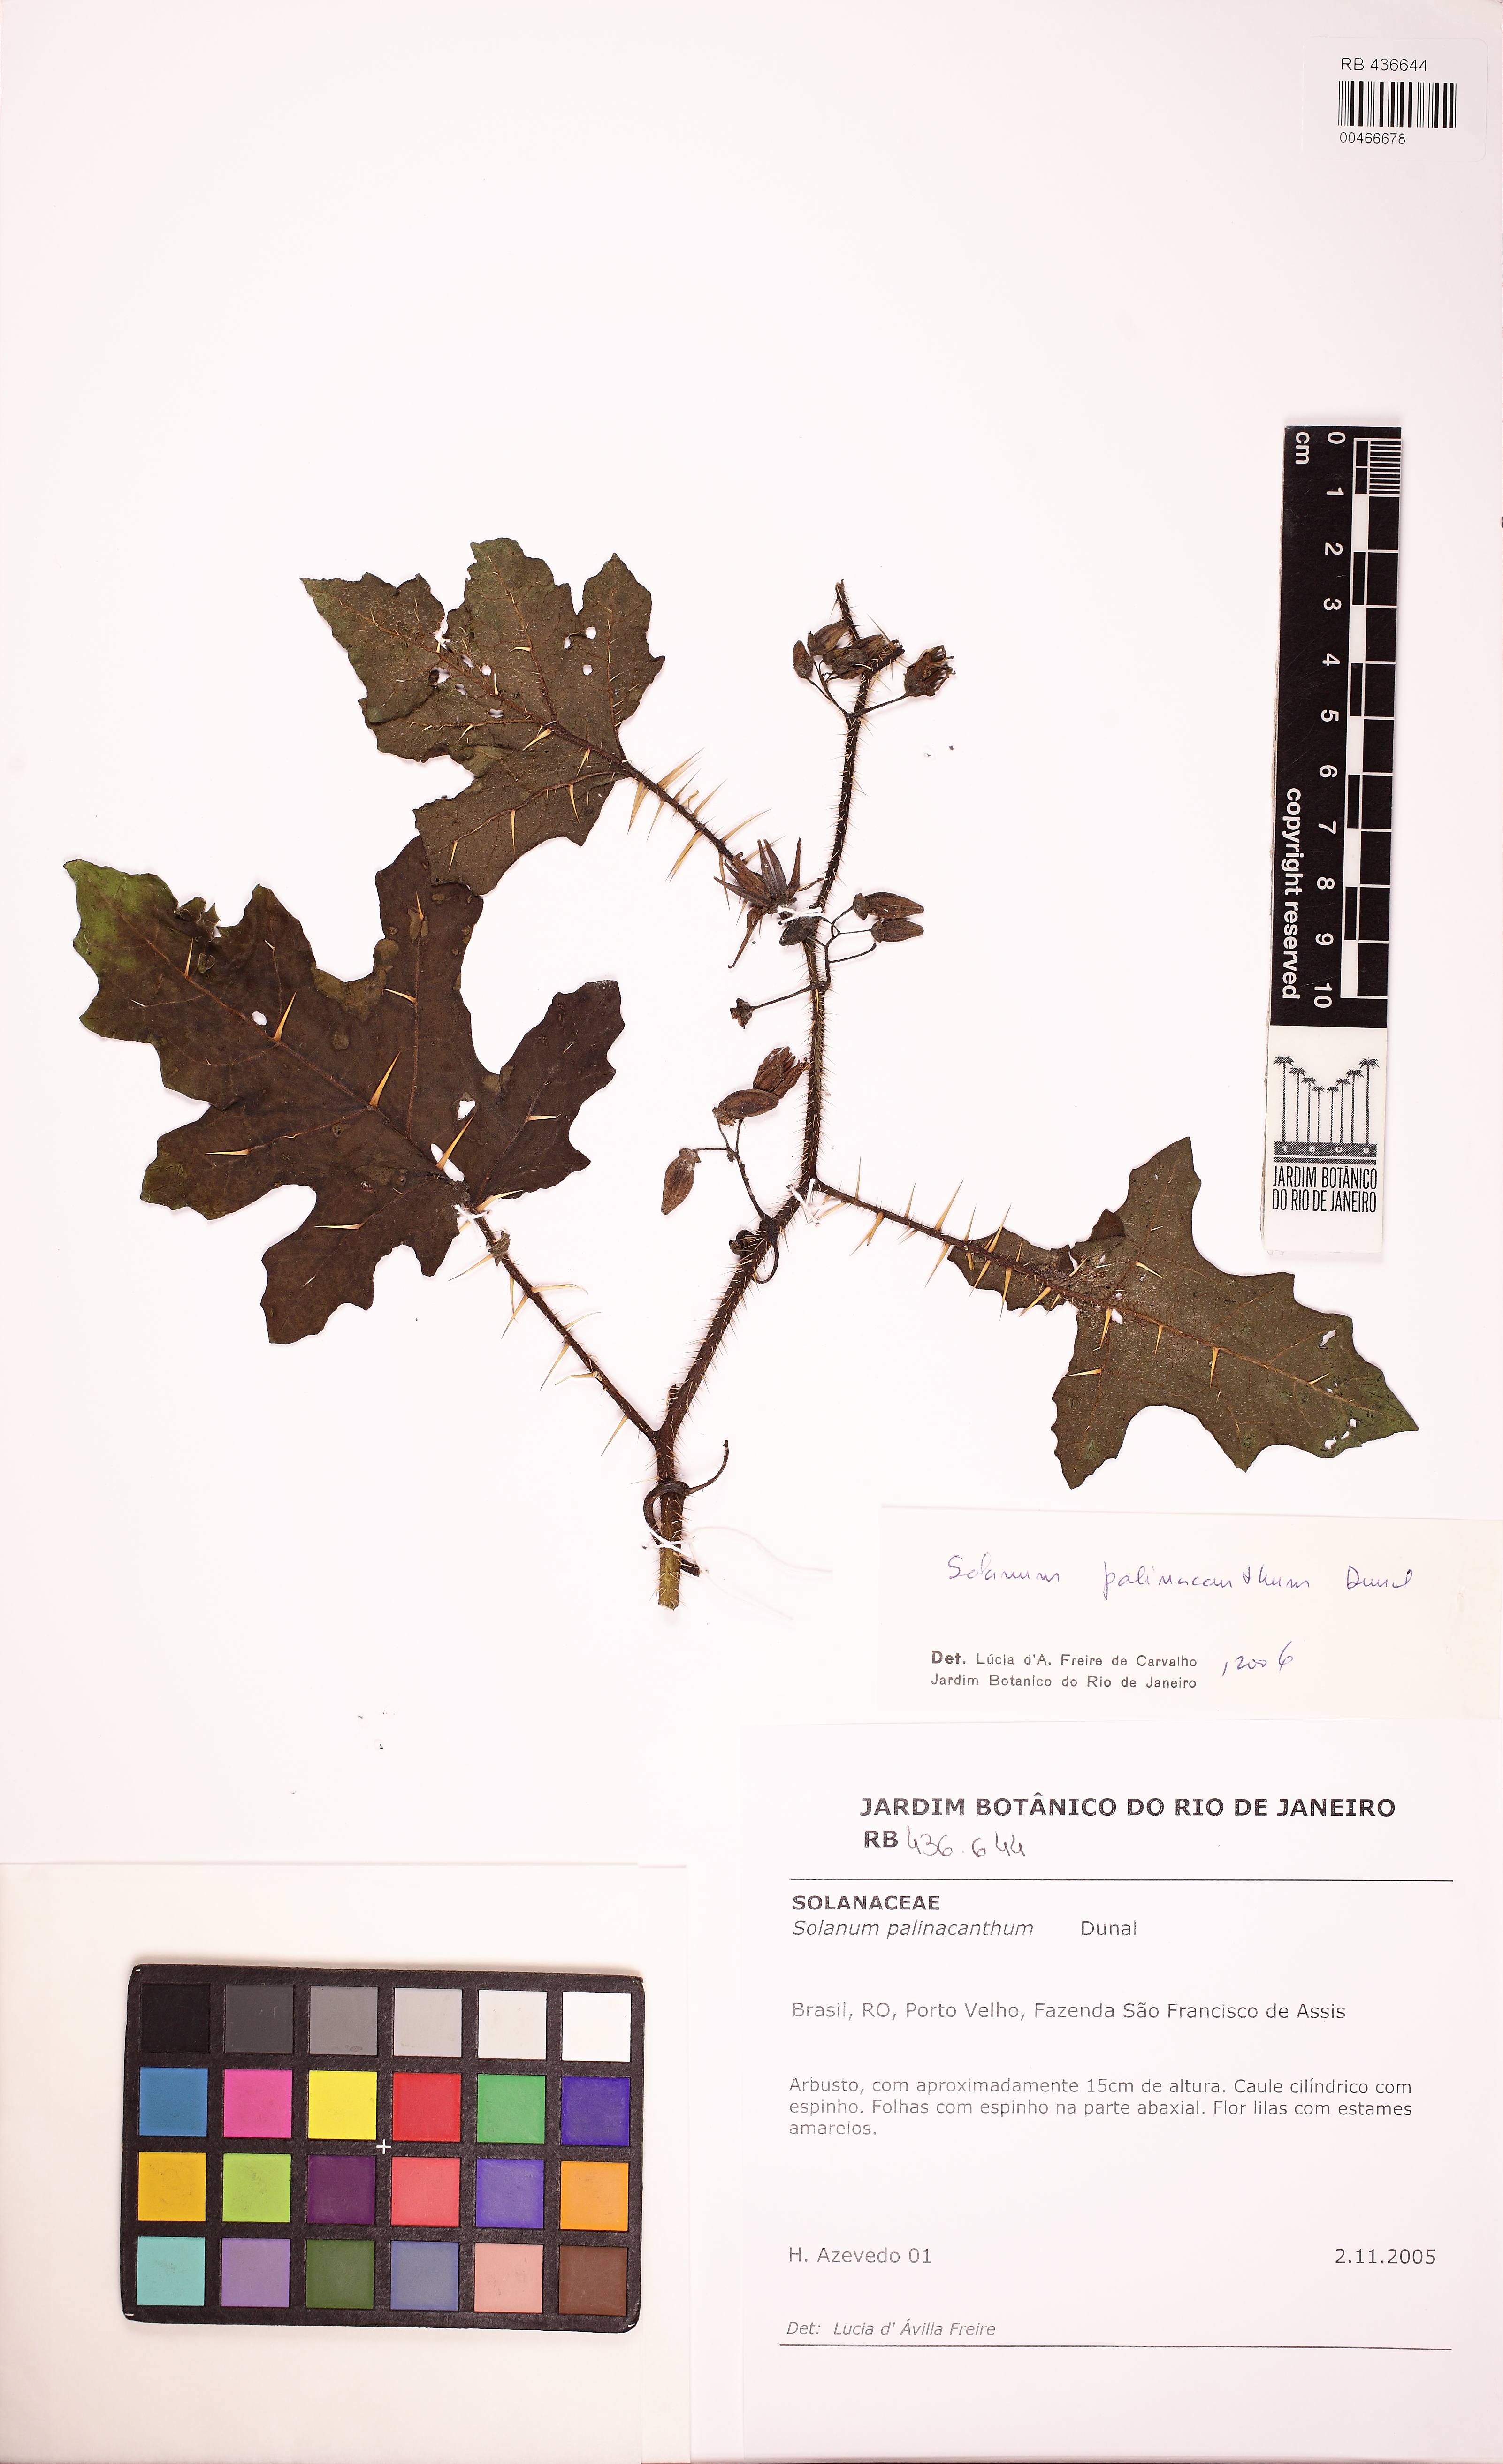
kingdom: Plantae
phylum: Tracheophyta
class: Magnoliopsida
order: Solanales
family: Solanaceae
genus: Solanum
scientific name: Solanum palinacanthum
